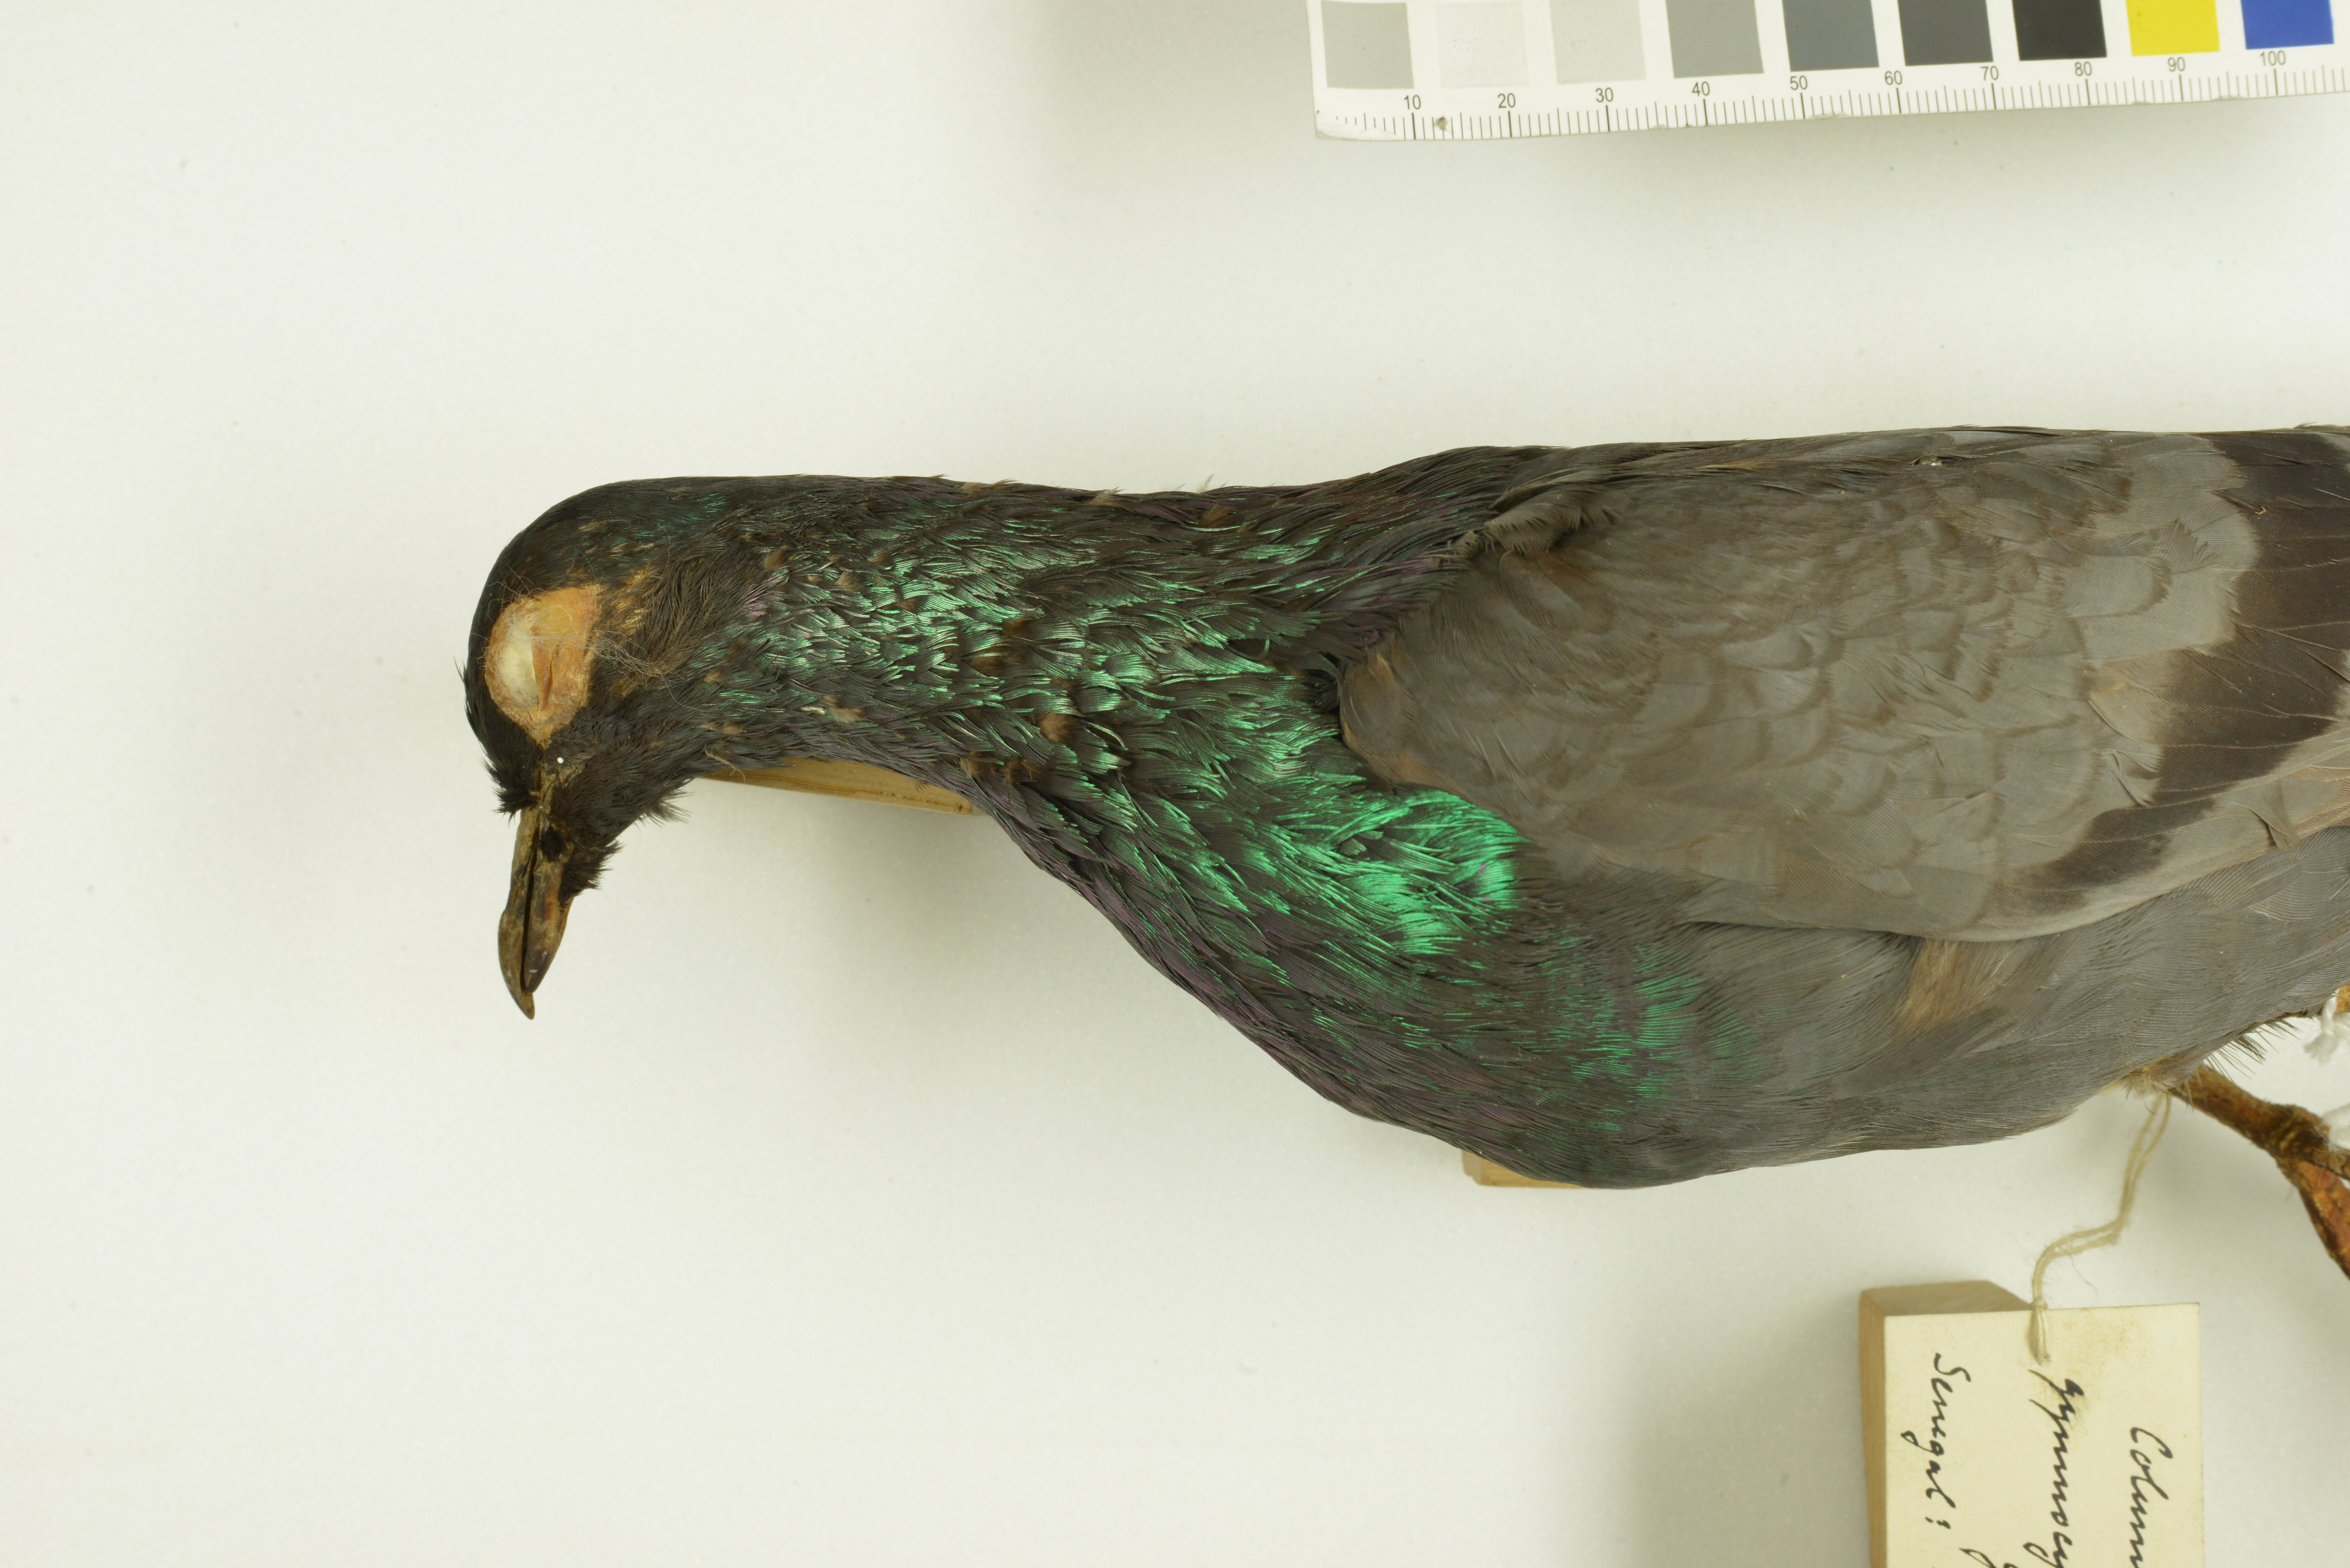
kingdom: Animalia
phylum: Chordata
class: Aves
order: Columbiformes
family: Columbidae
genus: Columba
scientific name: Columba livia
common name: Rock pigeon
